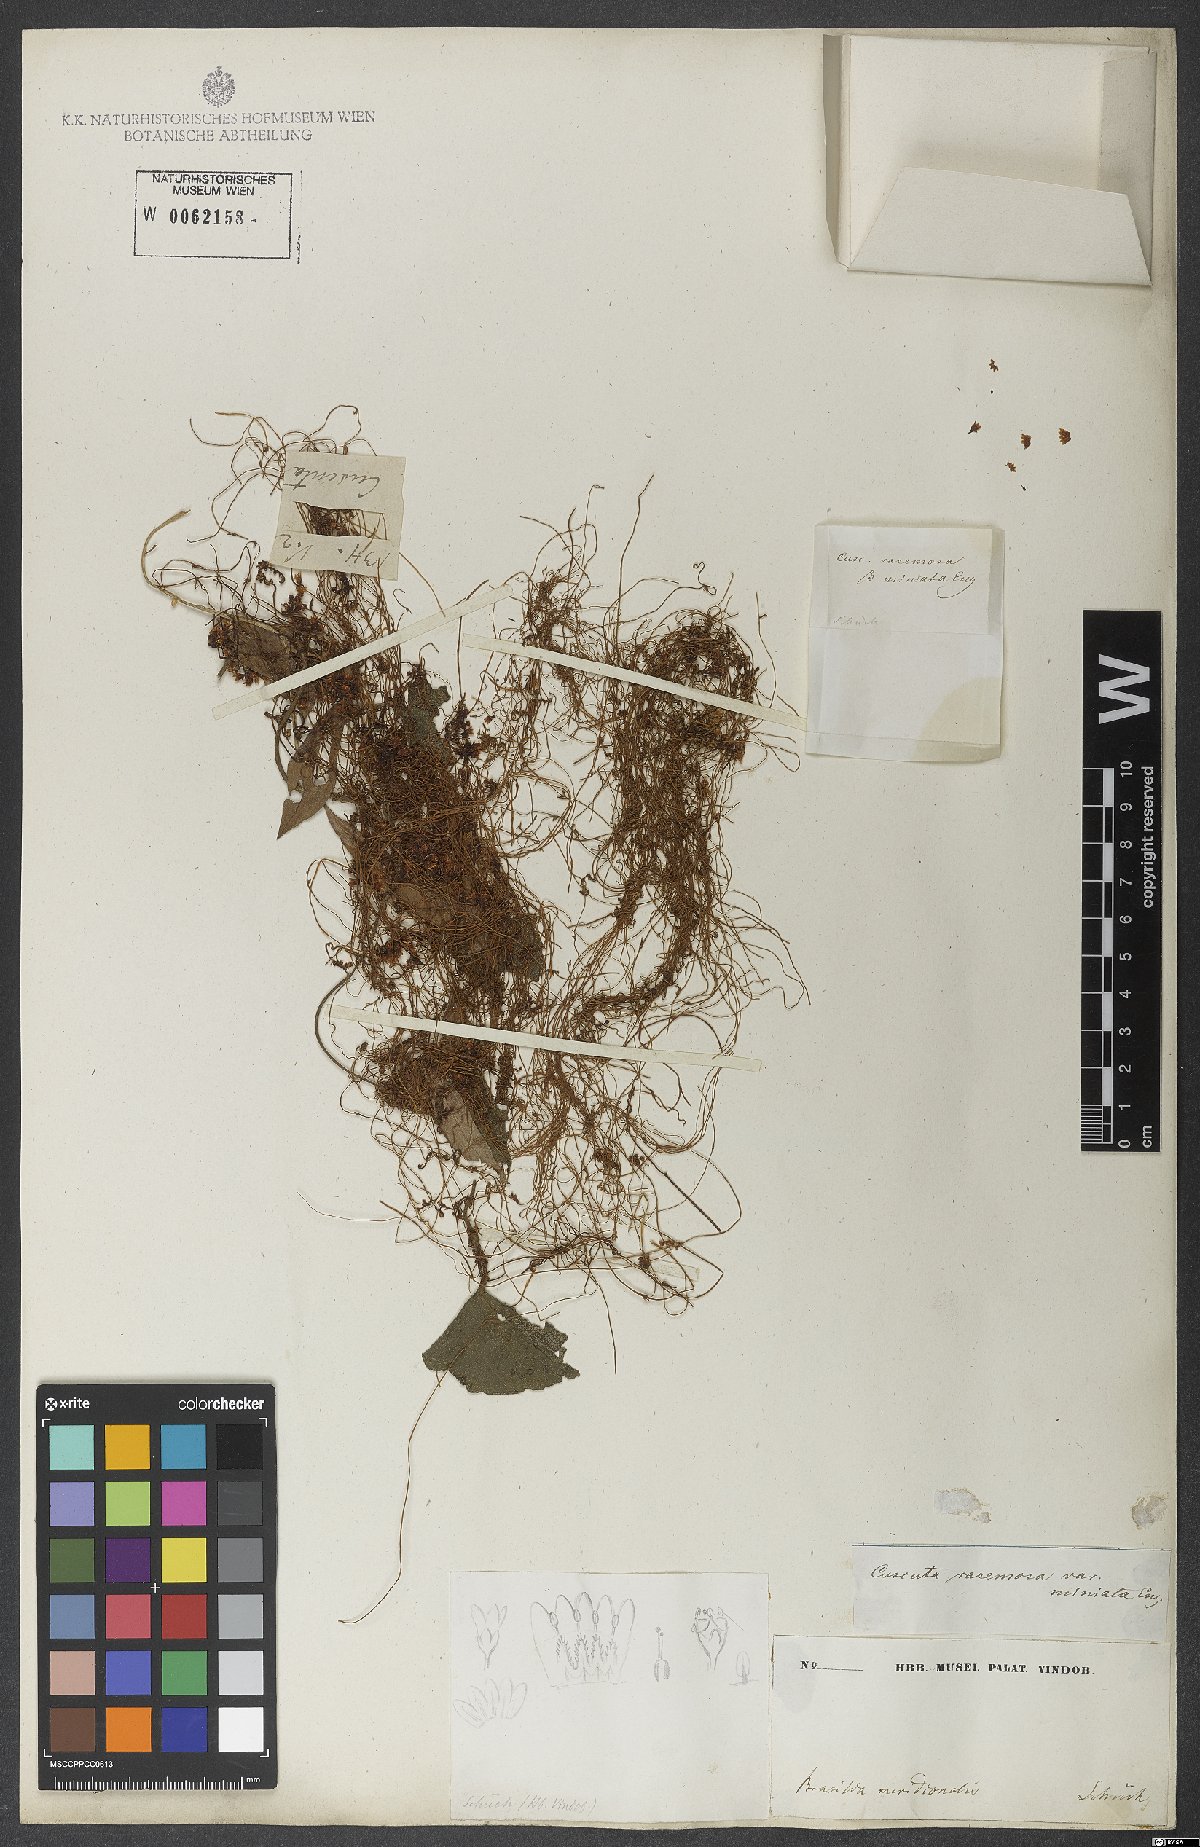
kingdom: Plantae
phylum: Tracheophyta
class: Magnoliopsida
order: Solanales
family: Convolvulaceae
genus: Cuscuta
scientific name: Cuscuta racemosa
